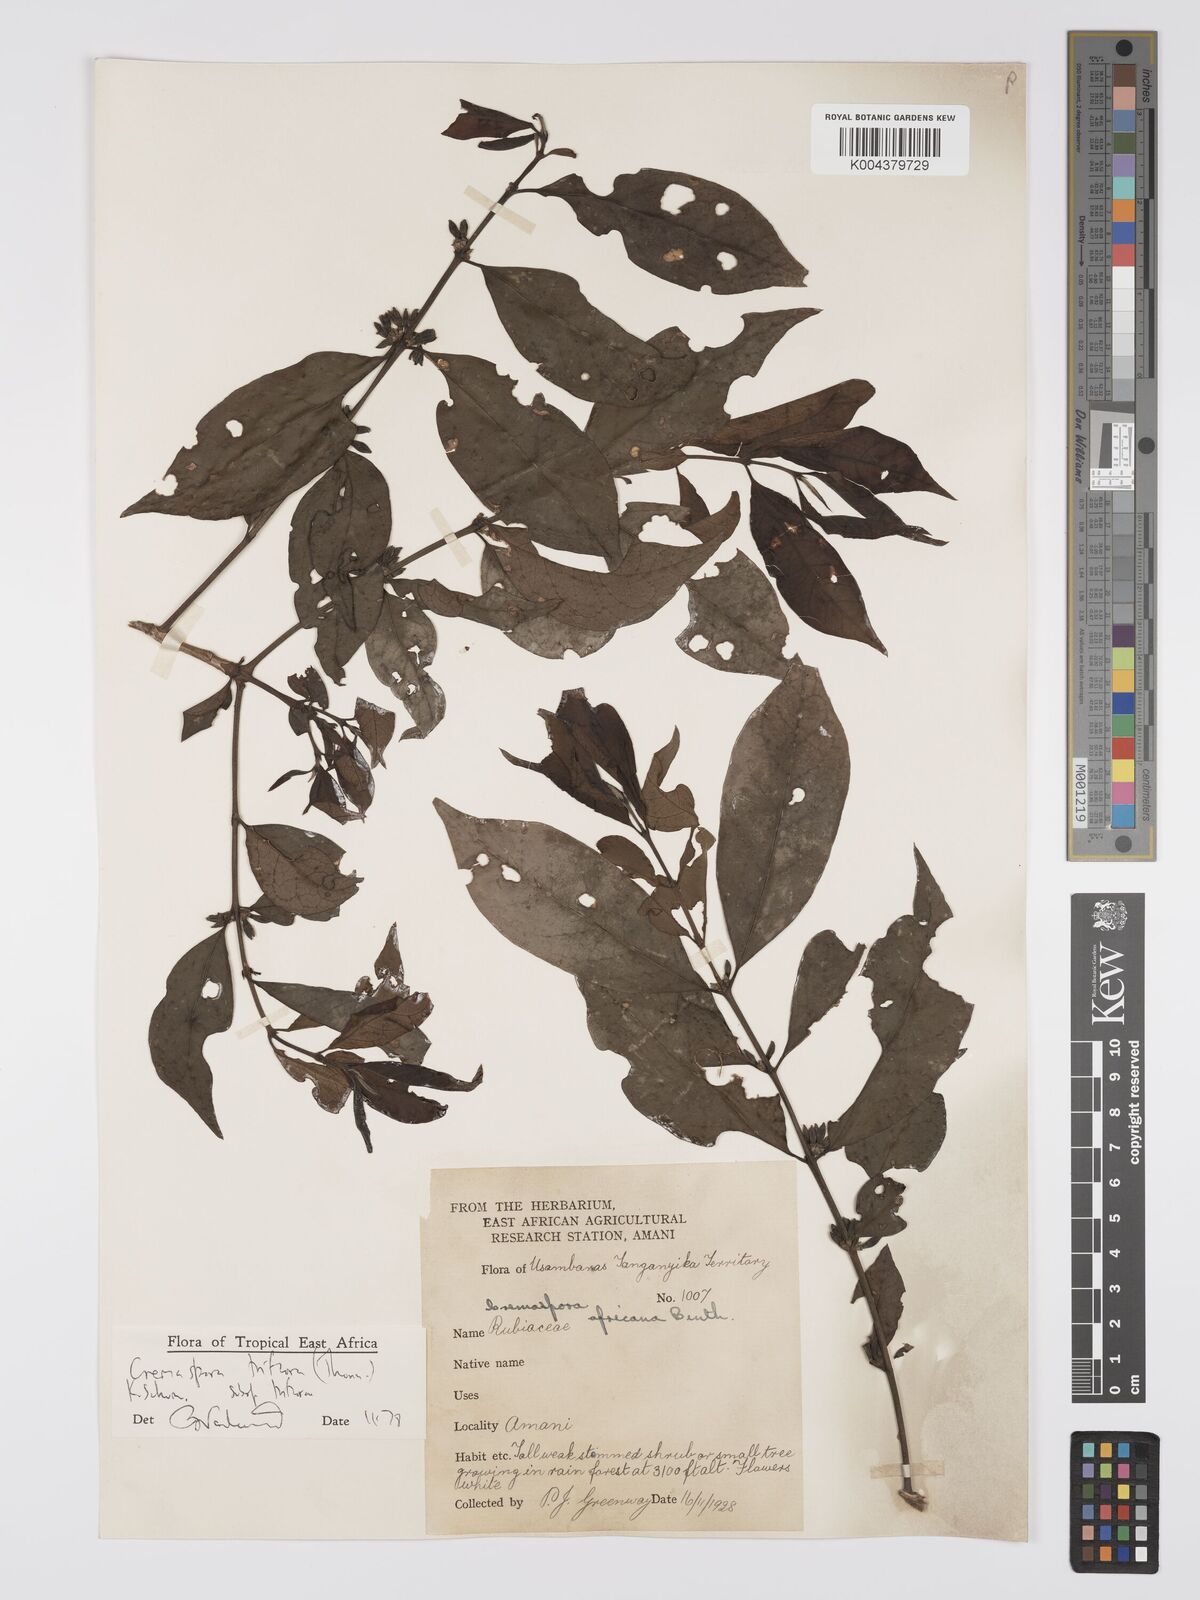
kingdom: Plantae
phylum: Tracheophyta
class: Magnoliopsida
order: Gentianales
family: Rubiaceae
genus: Cremaspora
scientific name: Cremaspora triflora
